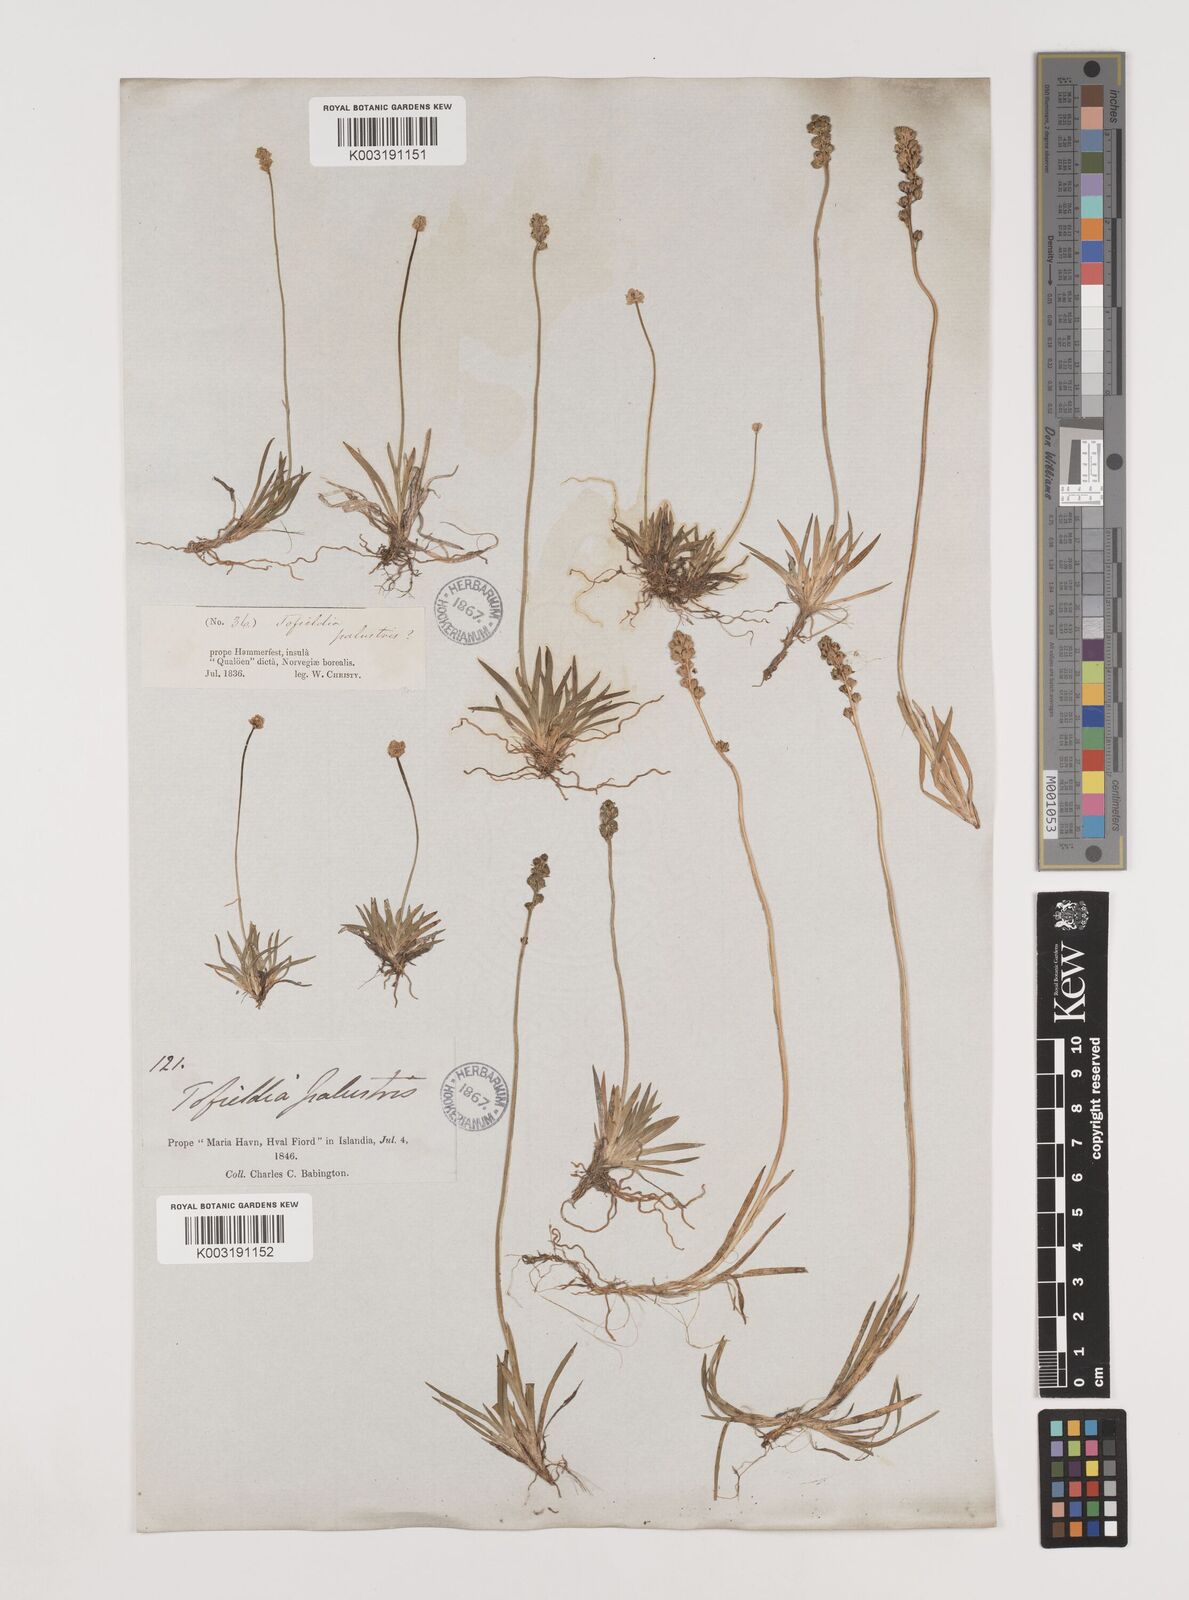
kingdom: Plantae
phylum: Tracheophyta
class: Liliopsida
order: Alismatales
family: Tofieldiaceae
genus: Tofieldia
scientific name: Tofieldia pusilla
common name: Scottish false asphodel
